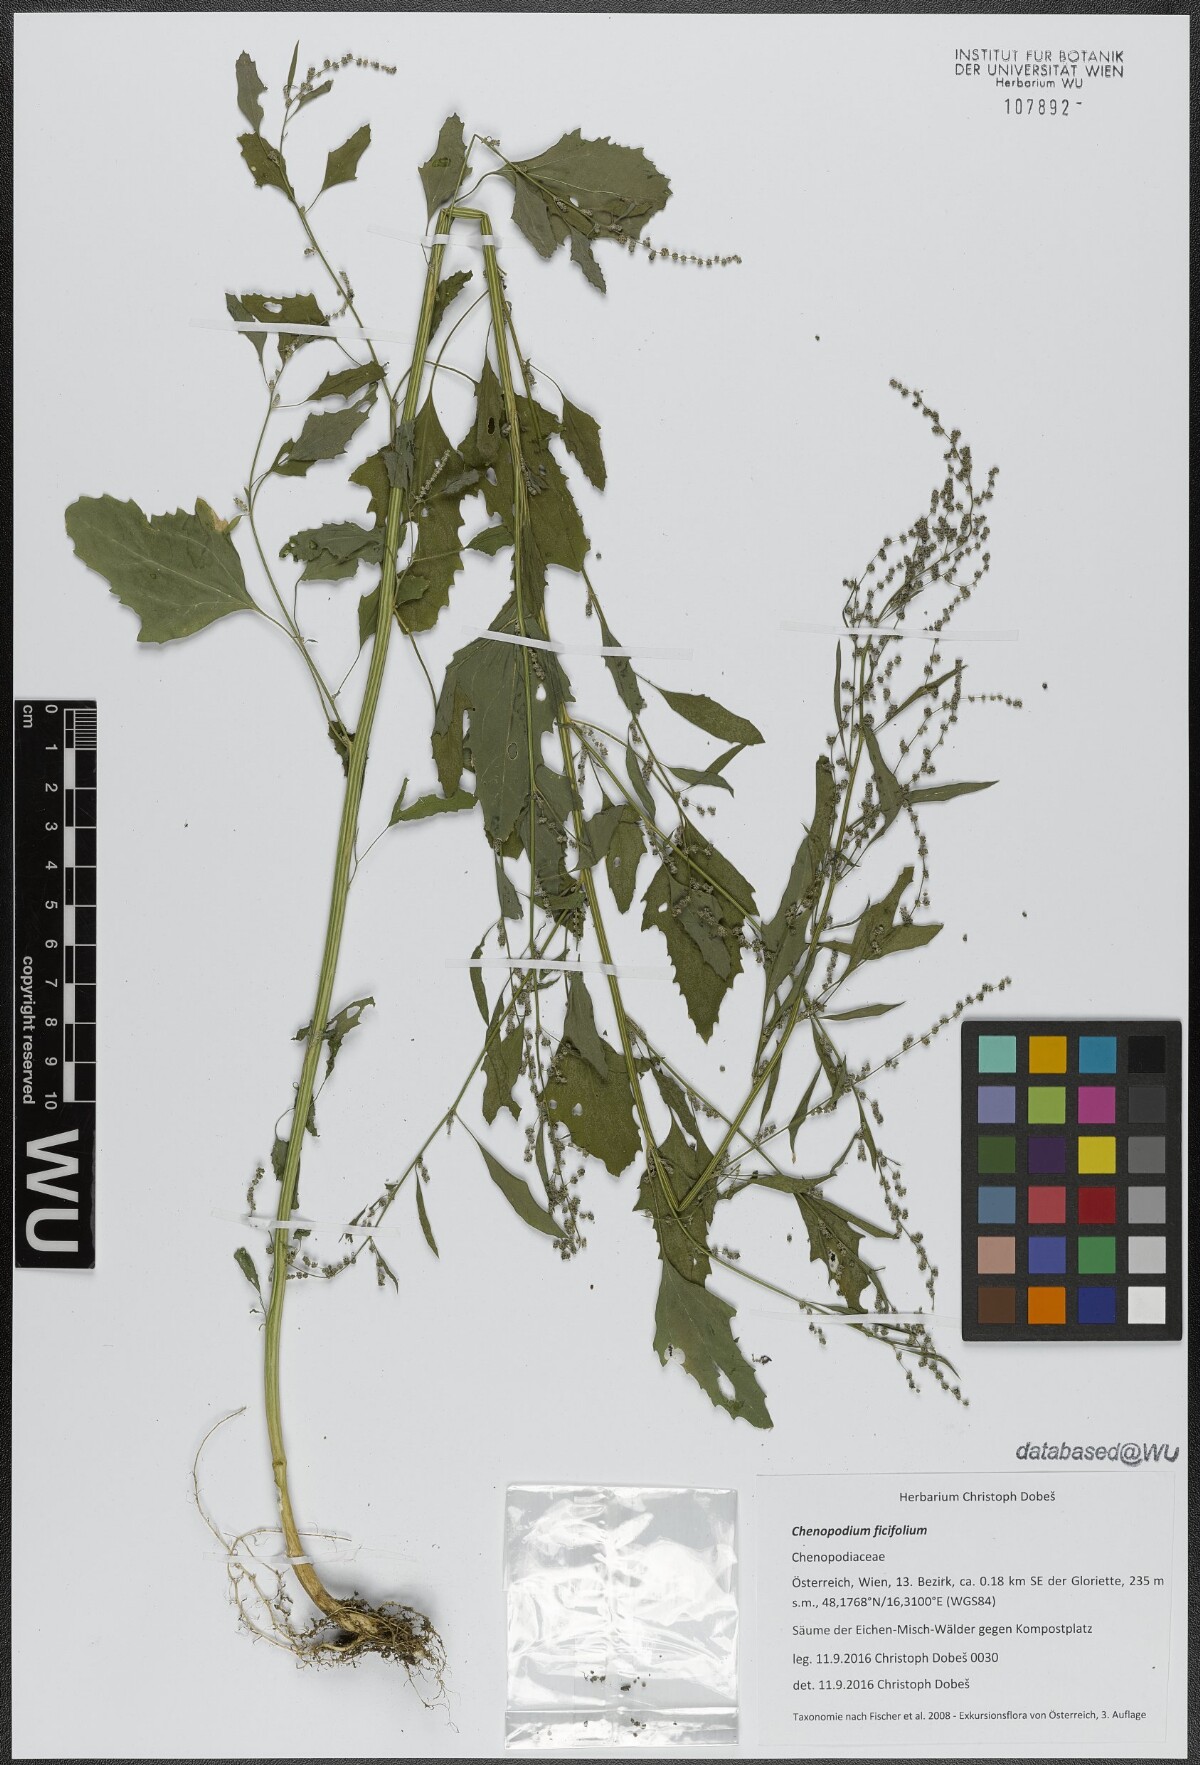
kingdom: Plantae
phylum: Tracheophyta
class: Magnoliopsida
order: Caryophyllales
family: Amaranthaceae
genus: Chenopodium
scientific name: Chenopodium ficifolium
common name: Fig-leaved goosefoot
